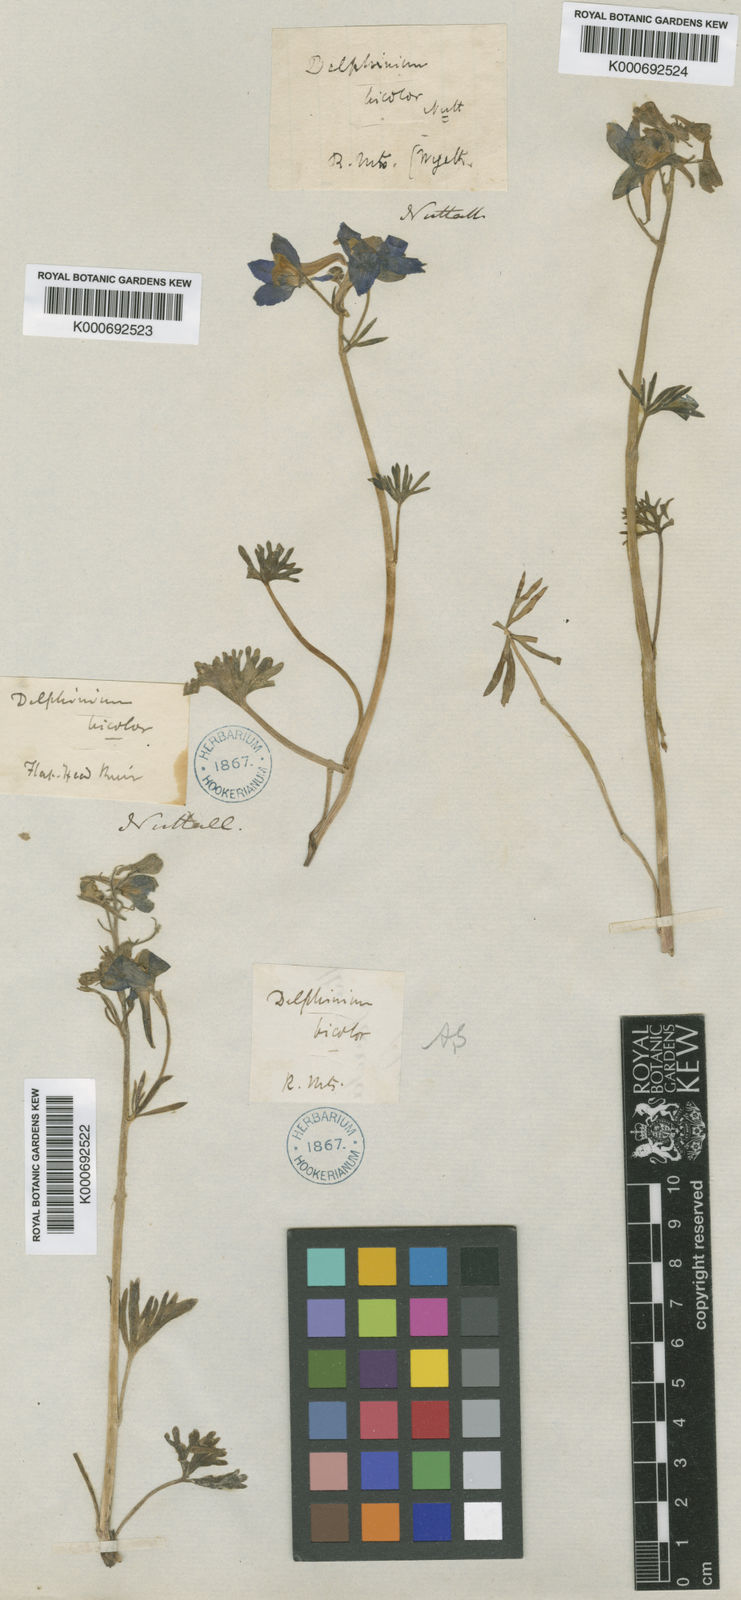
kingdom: Plantae
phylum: Tracheophyta
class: Magnoliopsida
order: Ranunculales
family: Ranunculaceae
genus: Delphinium
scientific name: Delphinium bicolor
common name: Low larkspur
